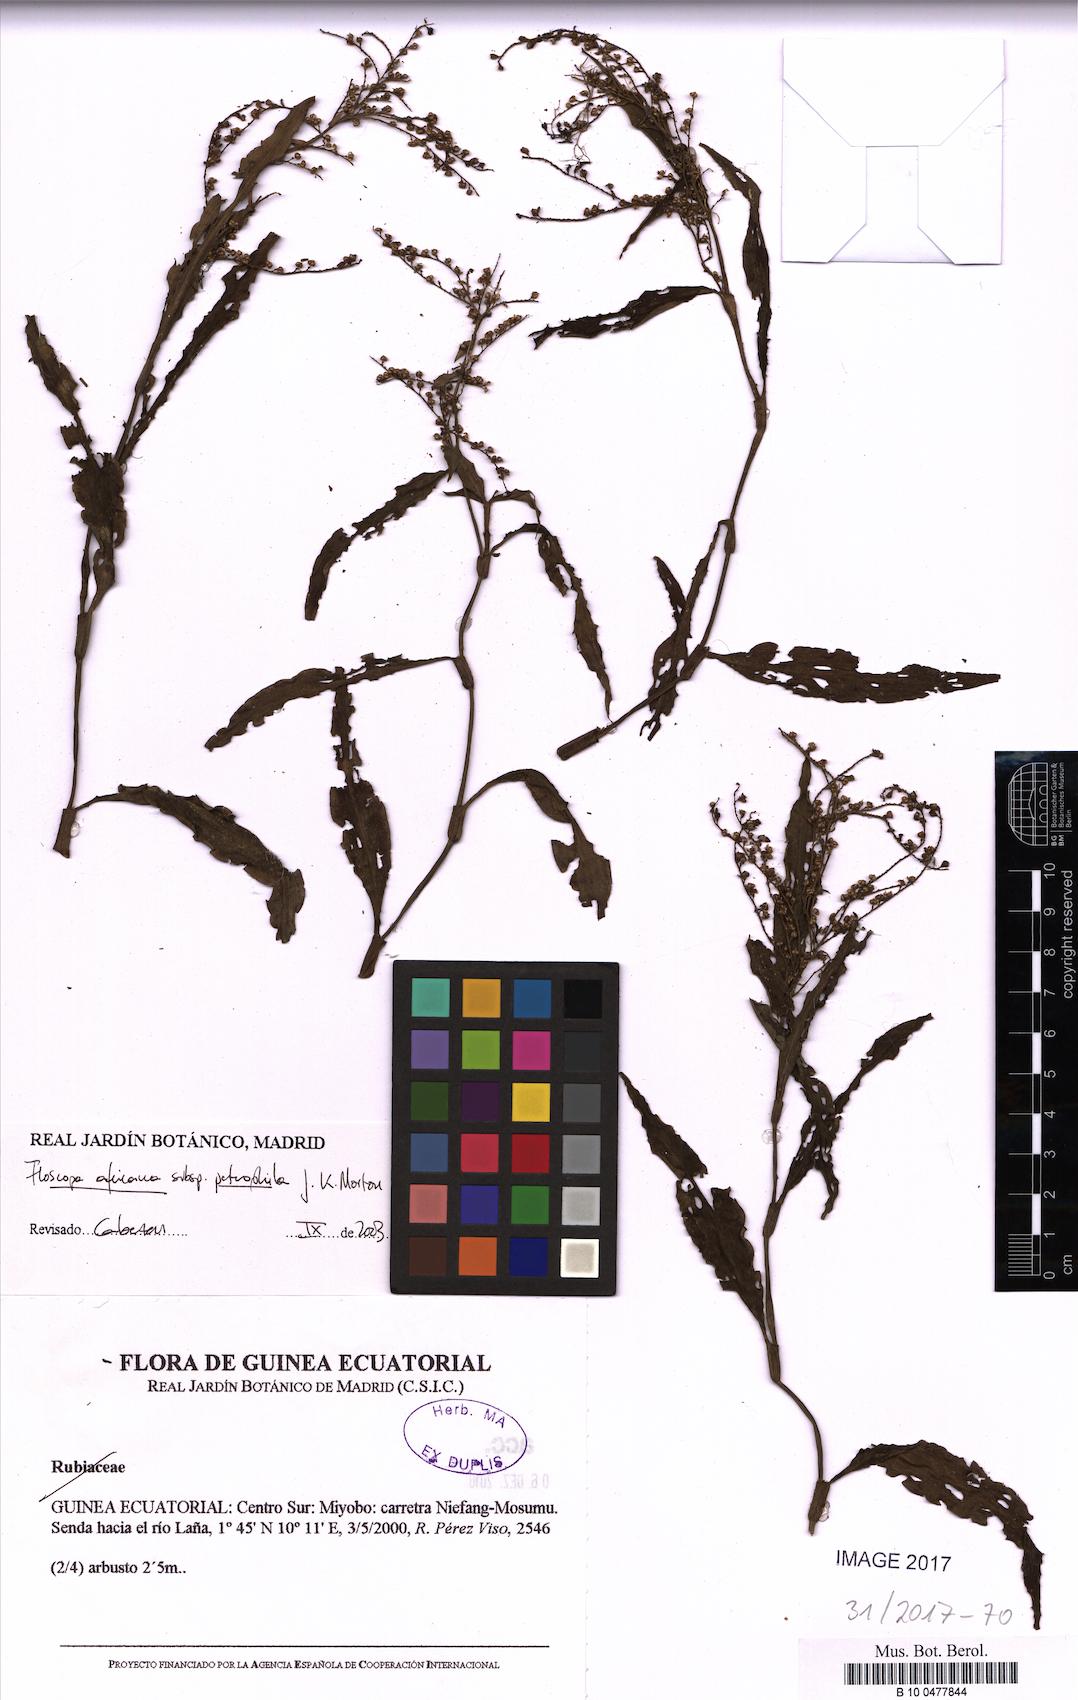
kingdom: Plantae
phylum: Tracheophyta
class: Liliopsida
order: Commelinales
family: Commelinaceae
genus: Floscopa
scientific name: Floscopa africana
